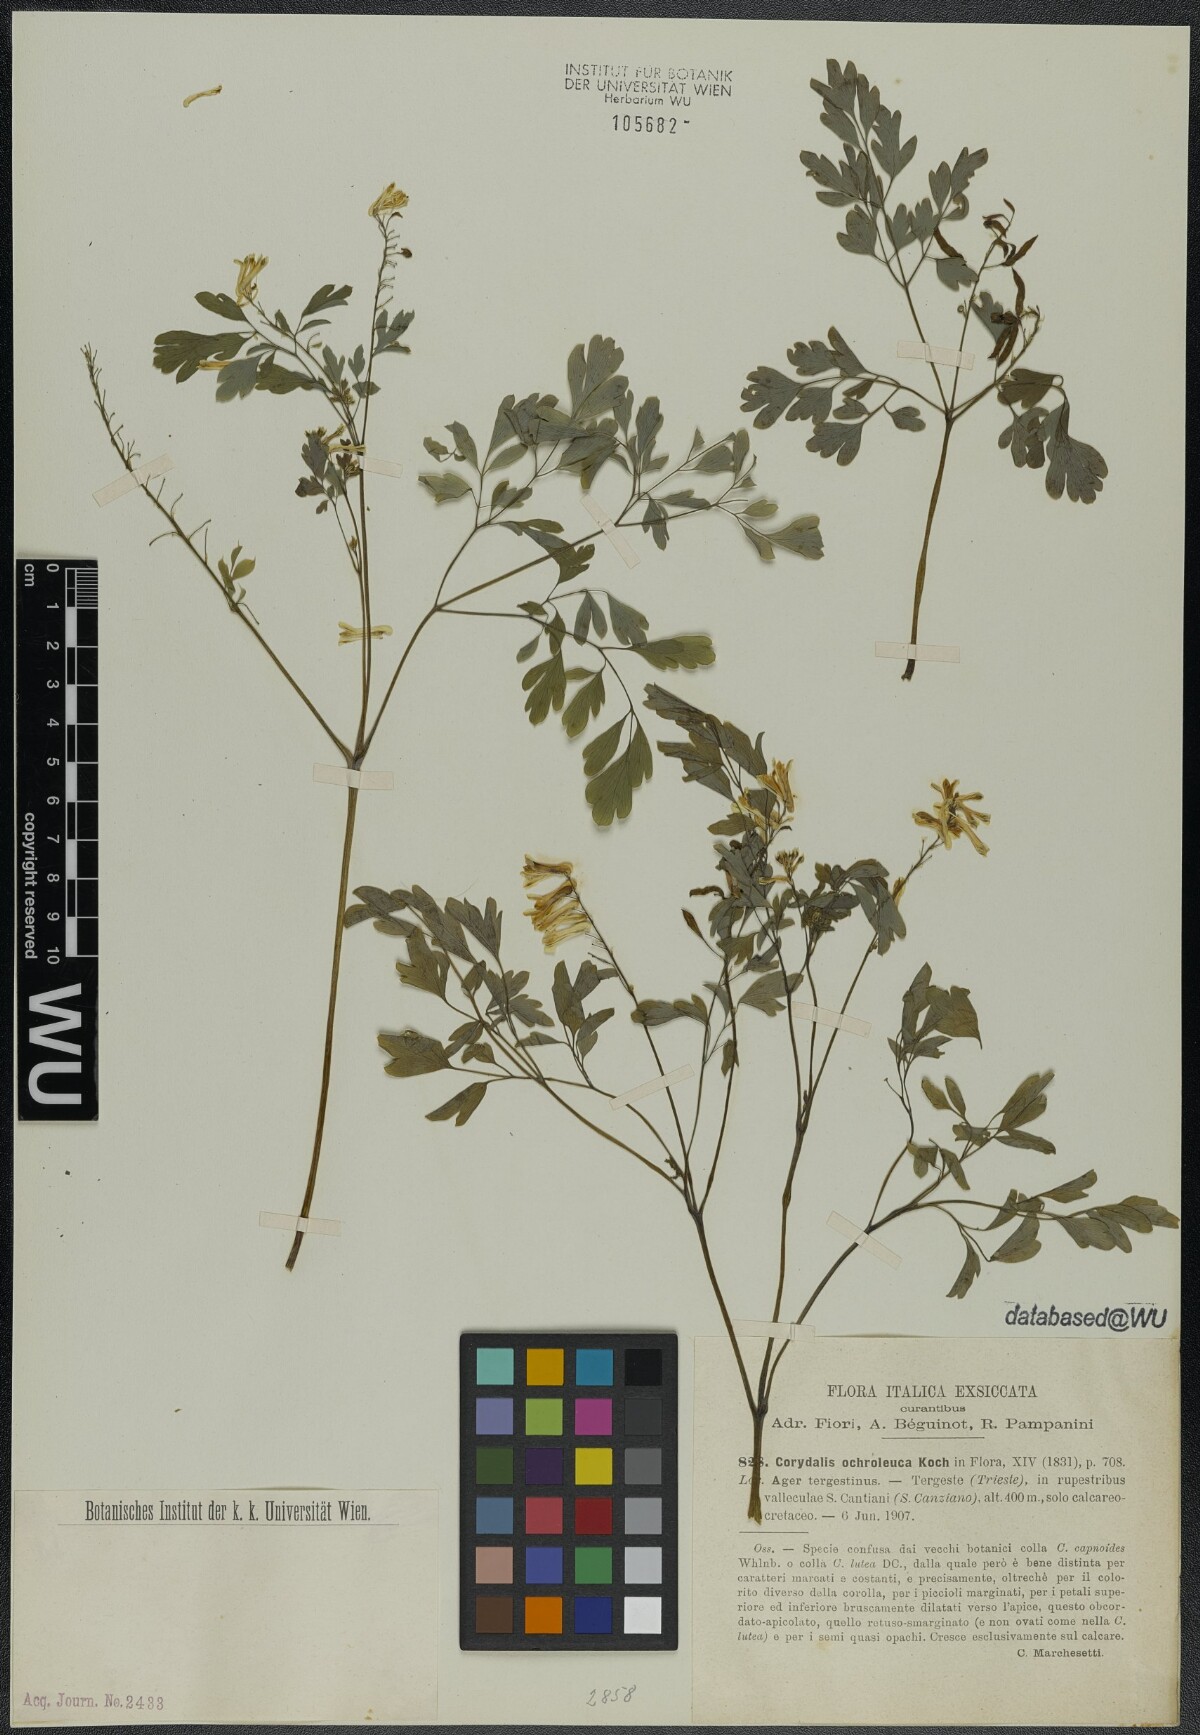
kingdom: Plantae
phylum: Tracheophyta
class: Magnoliopsida
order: Ranunculales
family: Papaveraceae
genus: Pseudofumaria
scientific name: Pseudofumaria alba
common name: Pale corydalis
